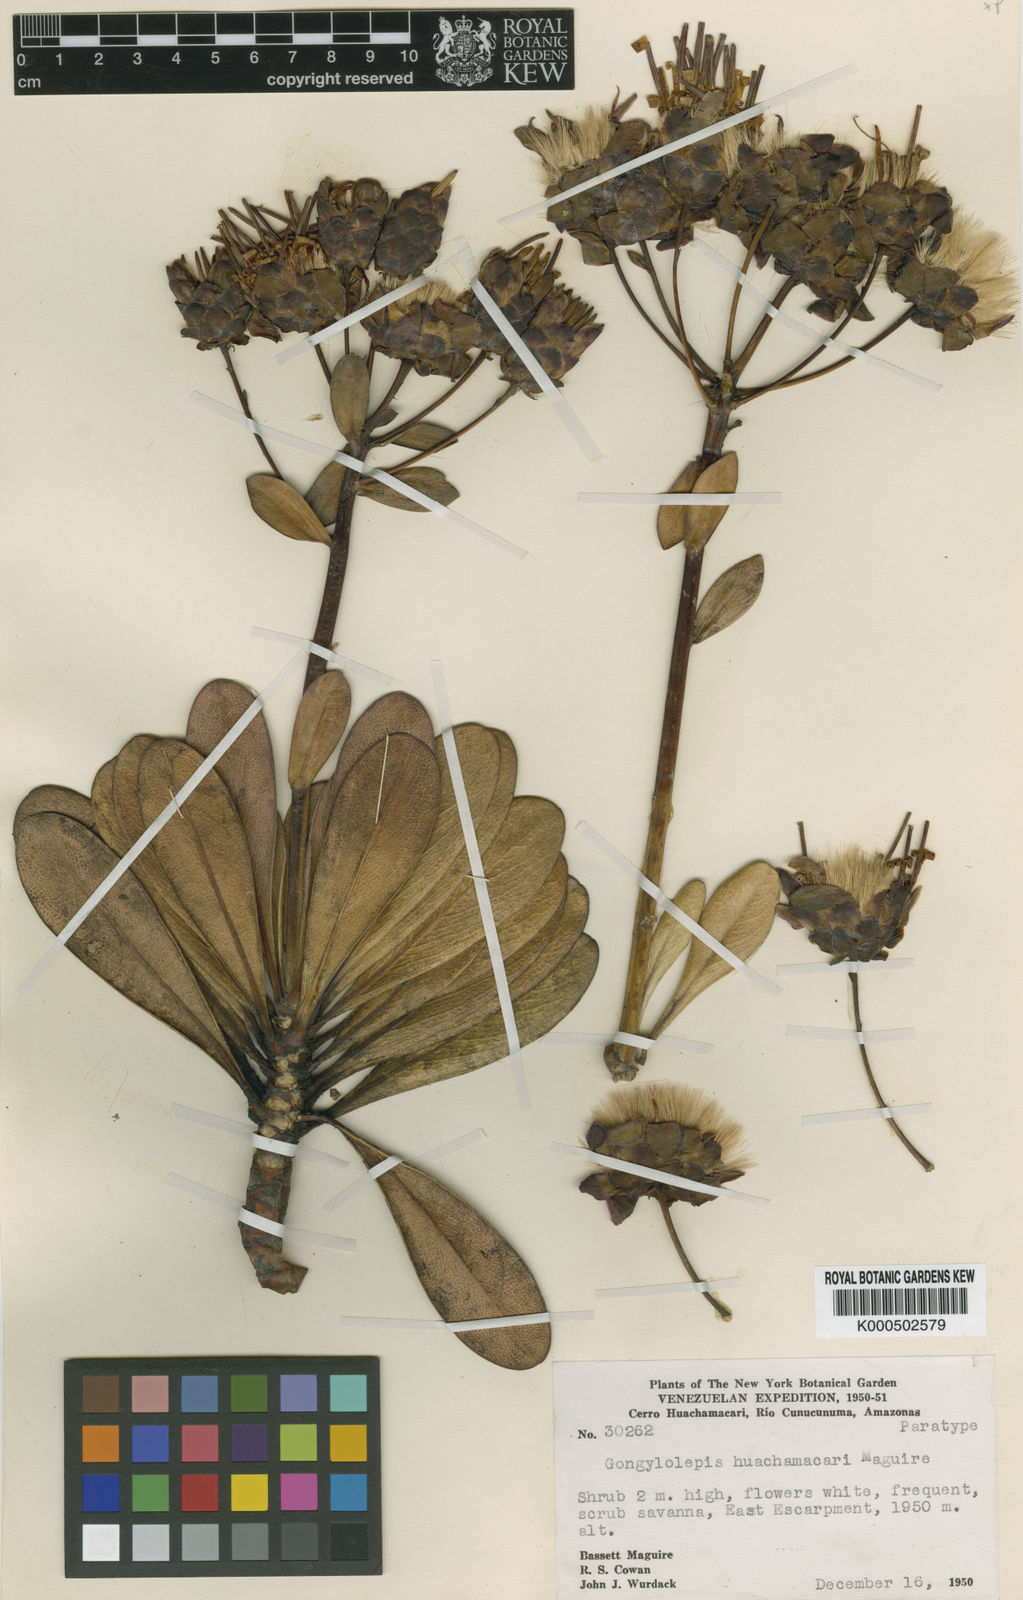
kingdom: Plantae
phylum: Tracheophyta
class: Magnoliopsida
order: Asterales
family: Asteraceae
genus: Gongylolepis
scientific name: Gongylolepis huachamacari
